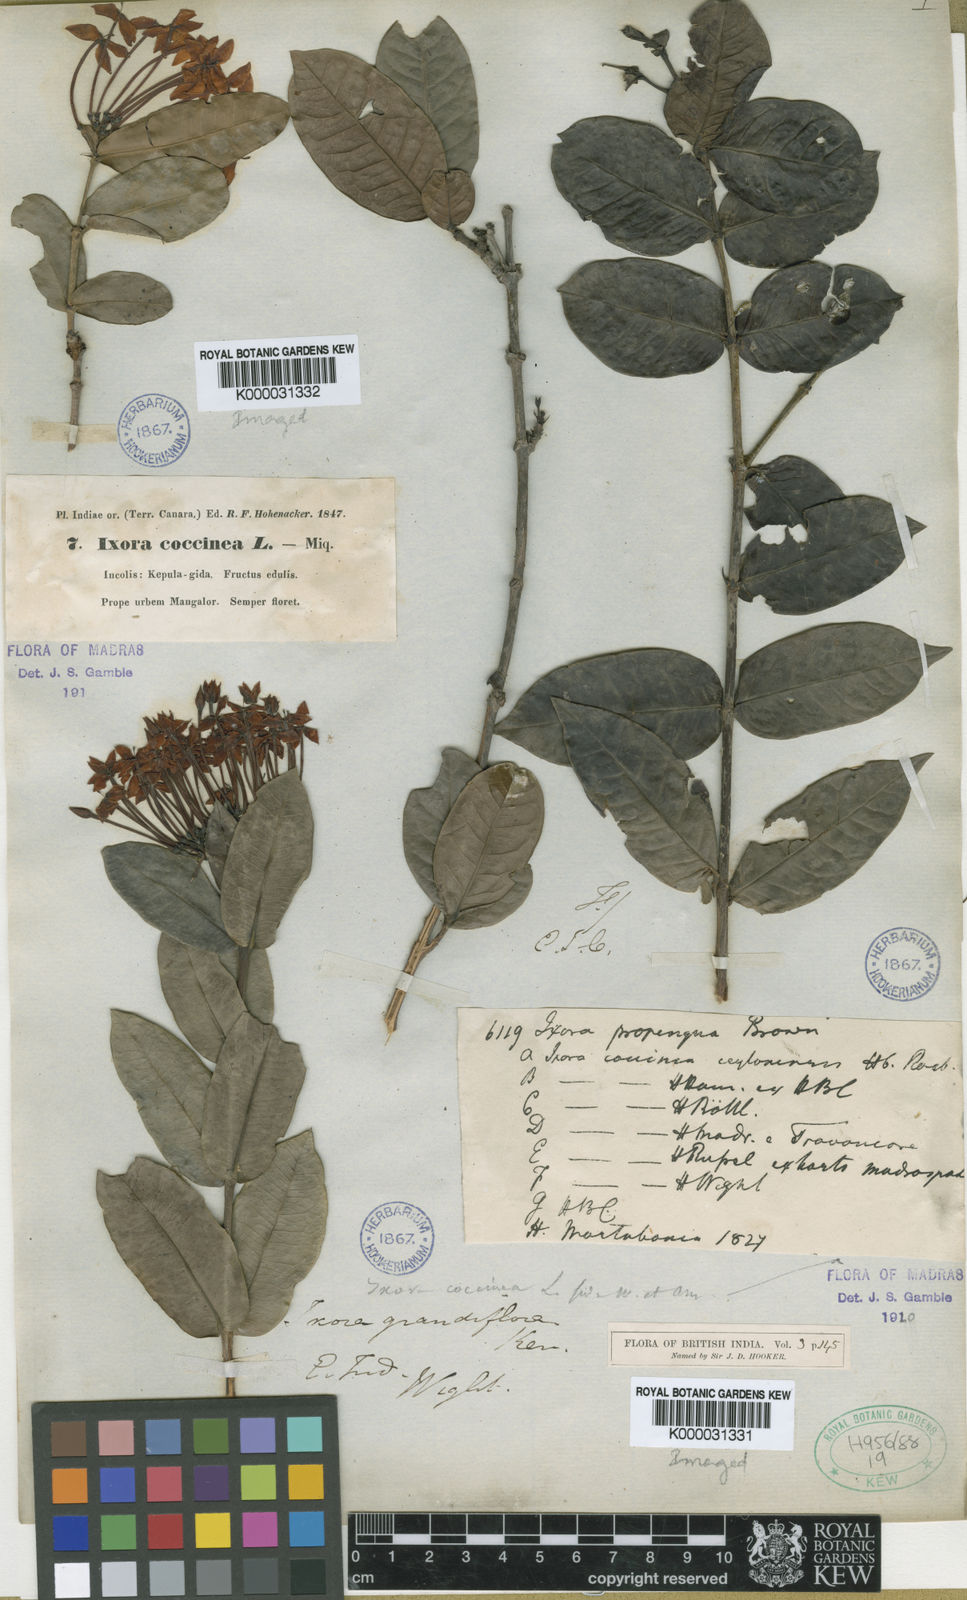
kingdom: Plantae
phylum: Tracheophyta
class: Magnoliopsida
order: Gentianales
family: Rubiaceae
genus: Ixora
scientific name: Ixora coccinea
